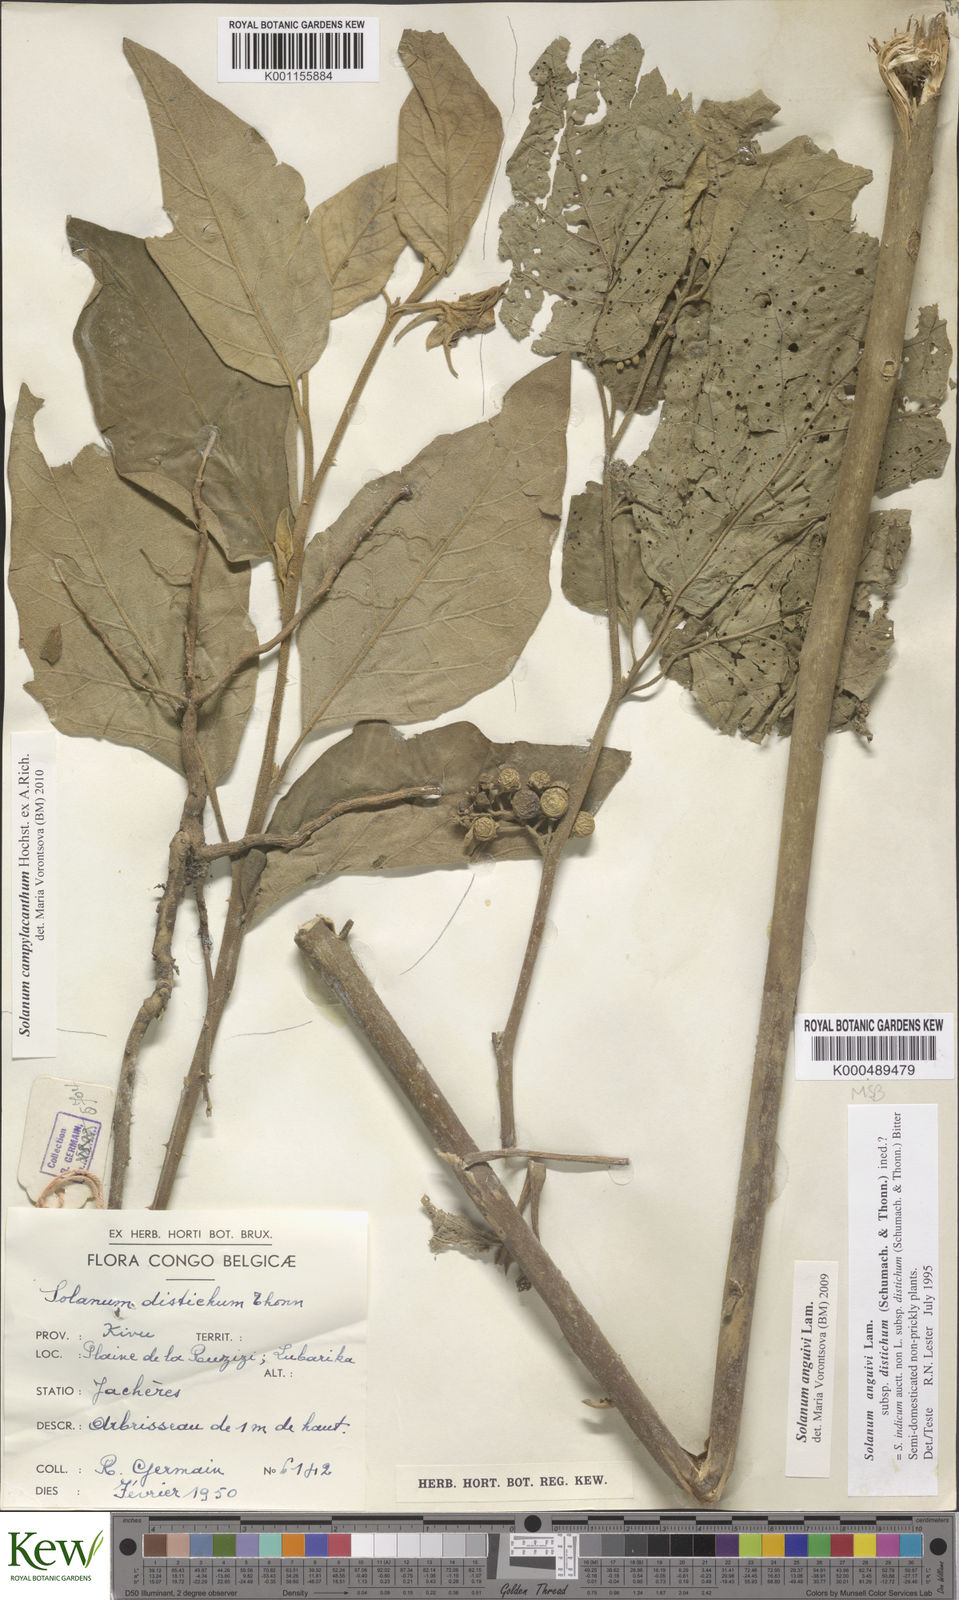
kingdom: Plantae
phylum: Tracheophyta
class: Magnoliopsida
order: Solanales
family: Solanaceae
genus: Solanum
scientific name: Solanum anguivi
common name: Forest bitterberry
